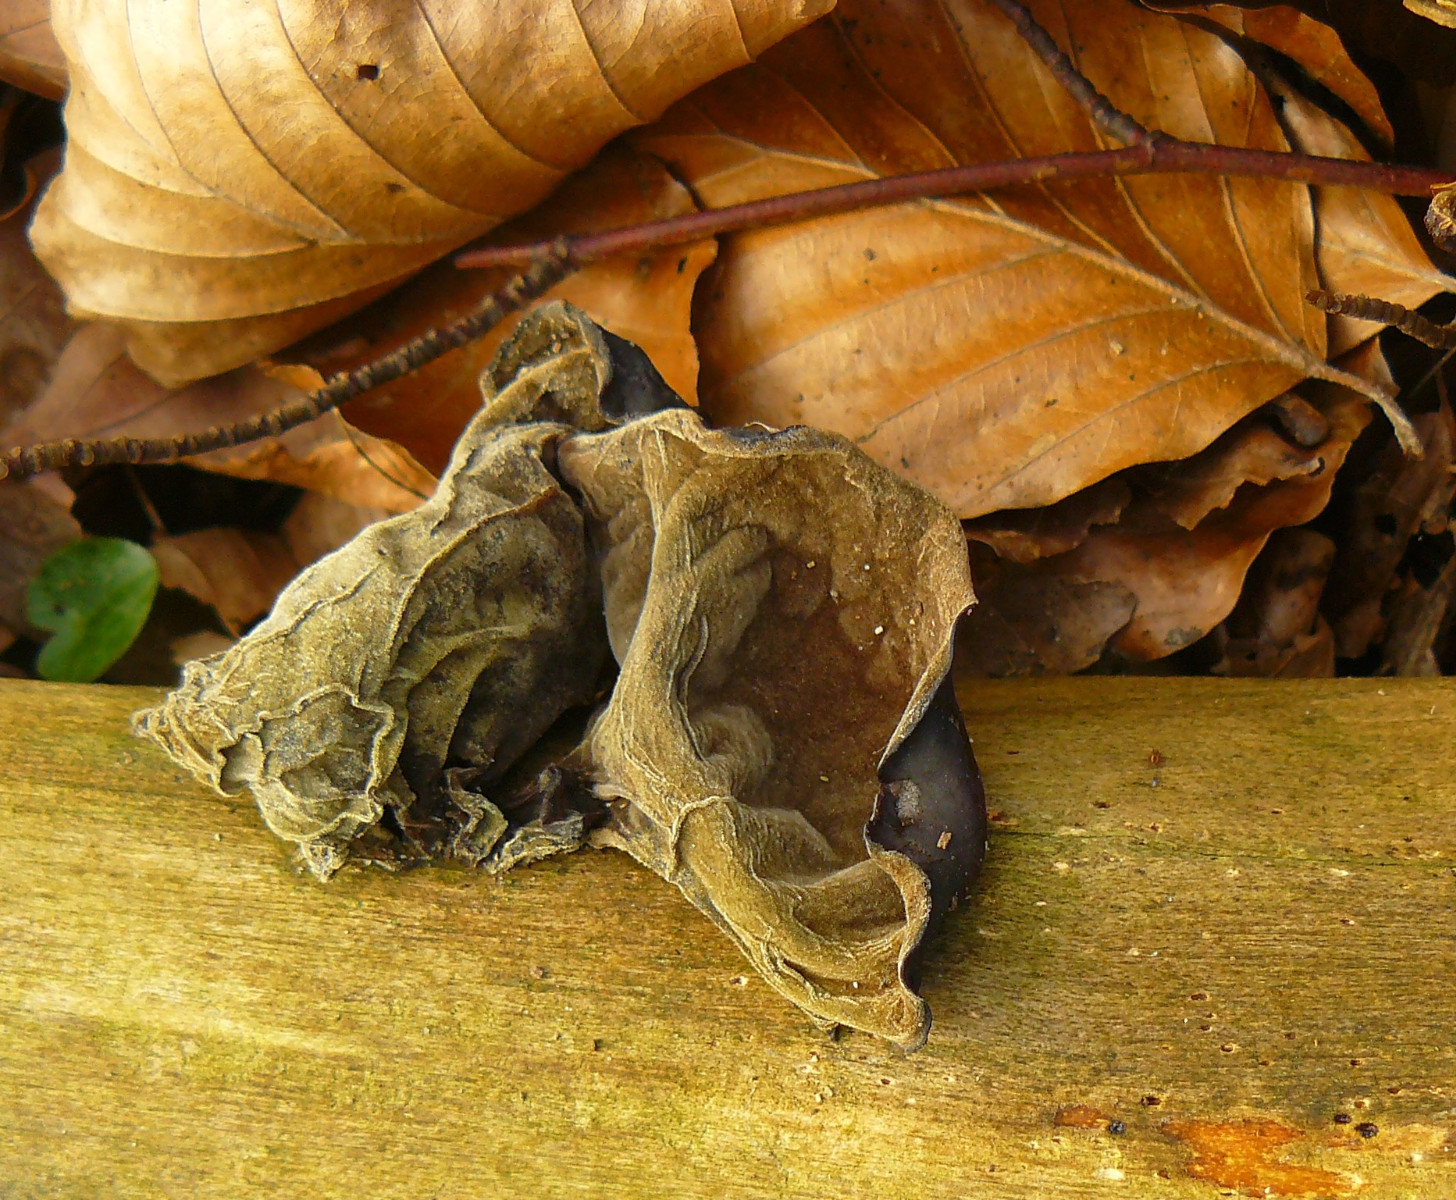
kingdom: Fungi
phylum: Basidiomycota
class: Agaricomycetes
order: Auriculariales
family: Auriculariaceae
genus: Auricularia
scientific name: Auricularia auricula-judae
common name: almindelig judasøre
